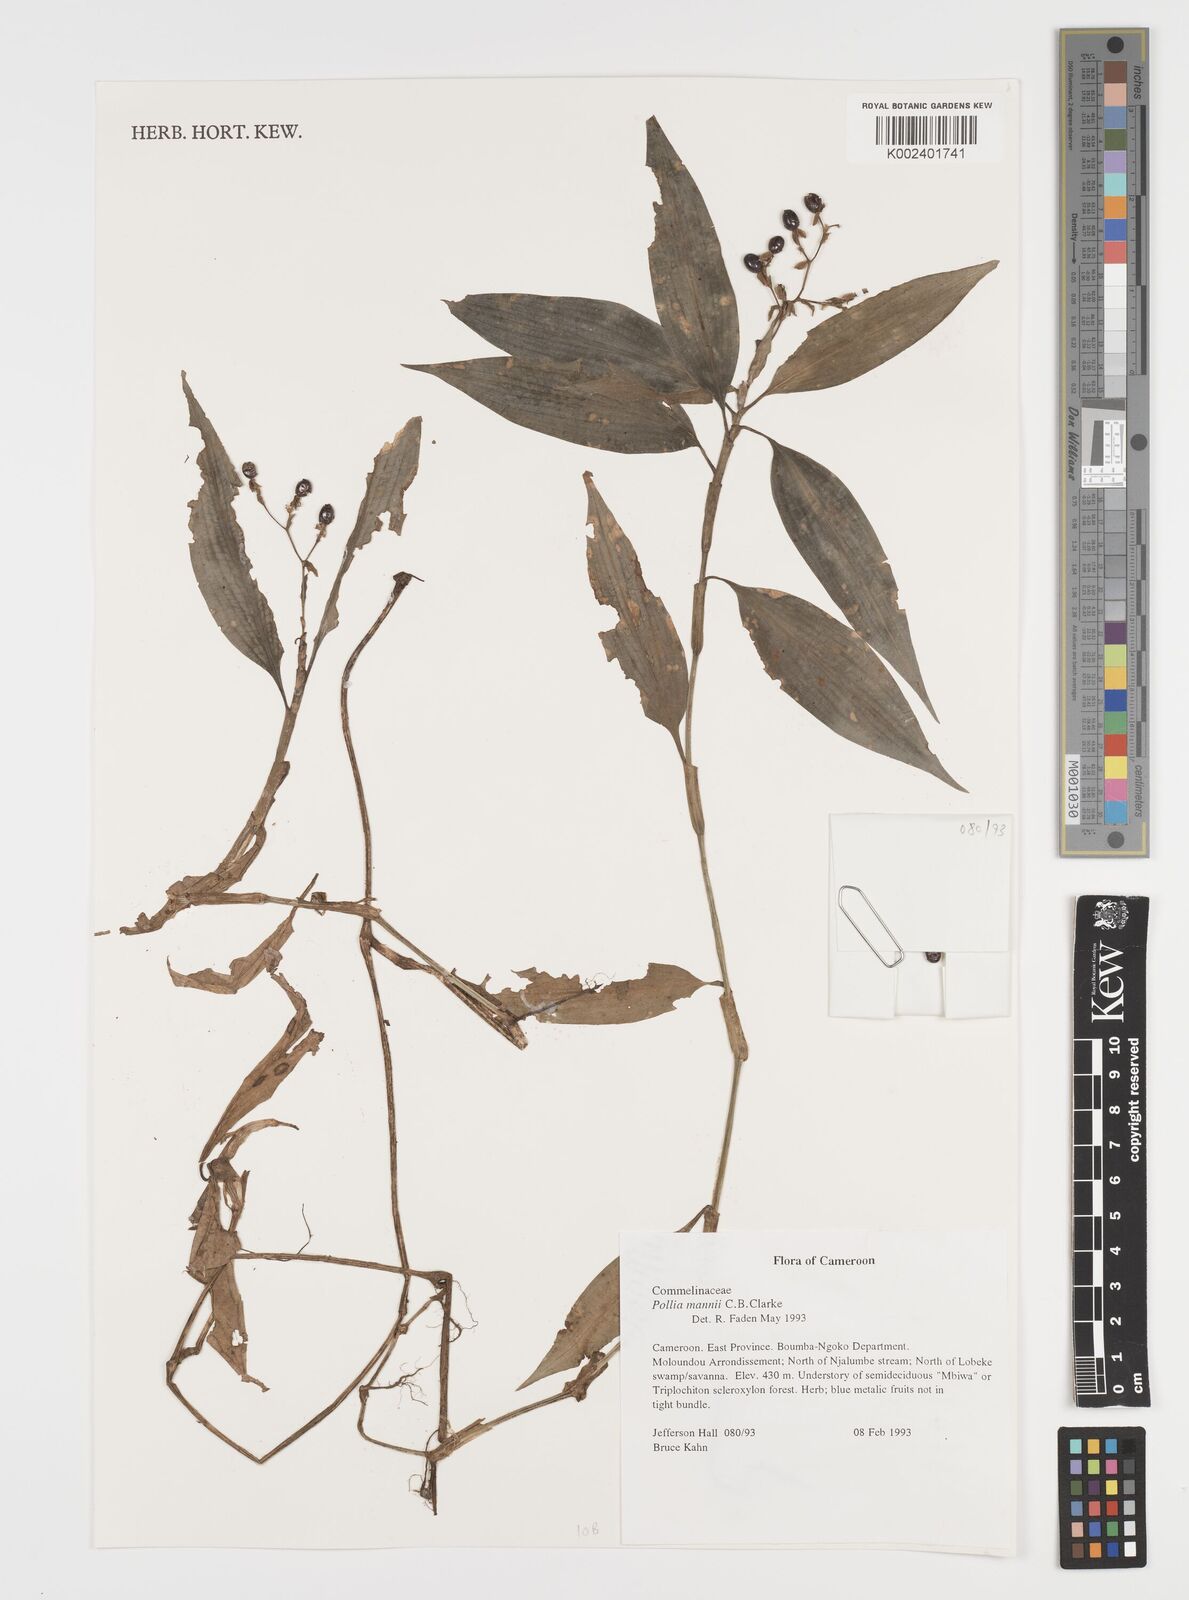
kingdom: Plantae
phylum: Tracheophyta
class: Liliopsida
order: Commelinales
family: Commelinaceae
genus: Pollia
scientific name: Pollia mannii
